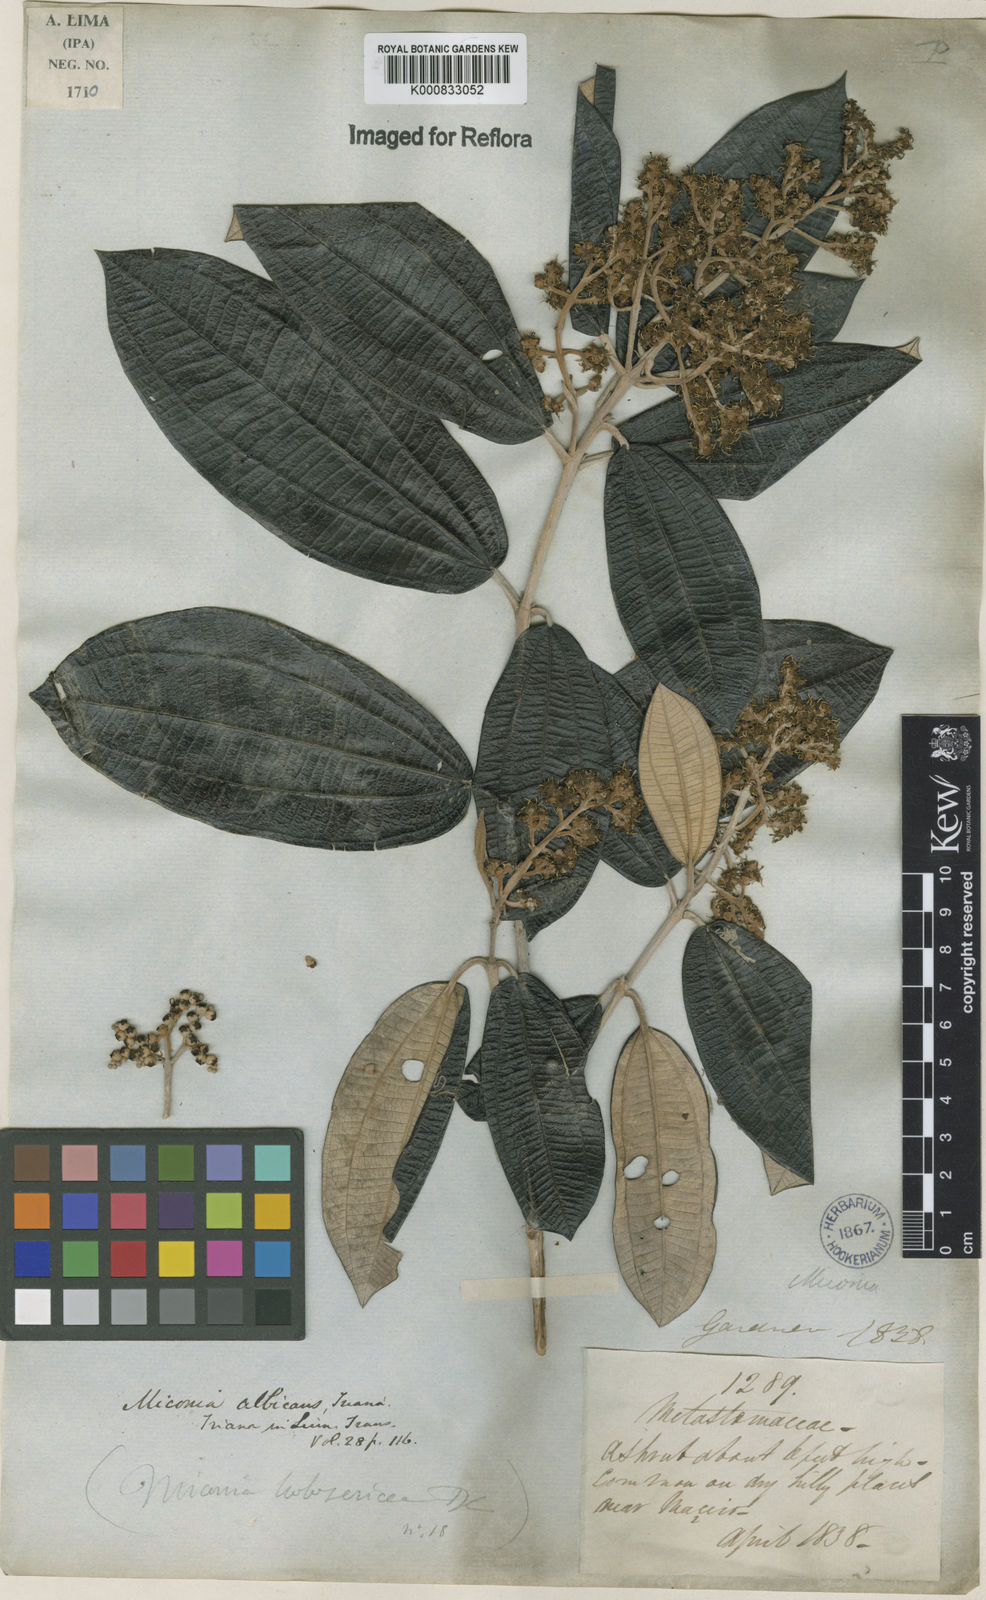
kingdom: Plantae
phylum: Tracheophyta
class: Magnoliopsida
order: Myrtales
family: Melastomataceae
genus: Miconia
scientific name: Miconia albicans
